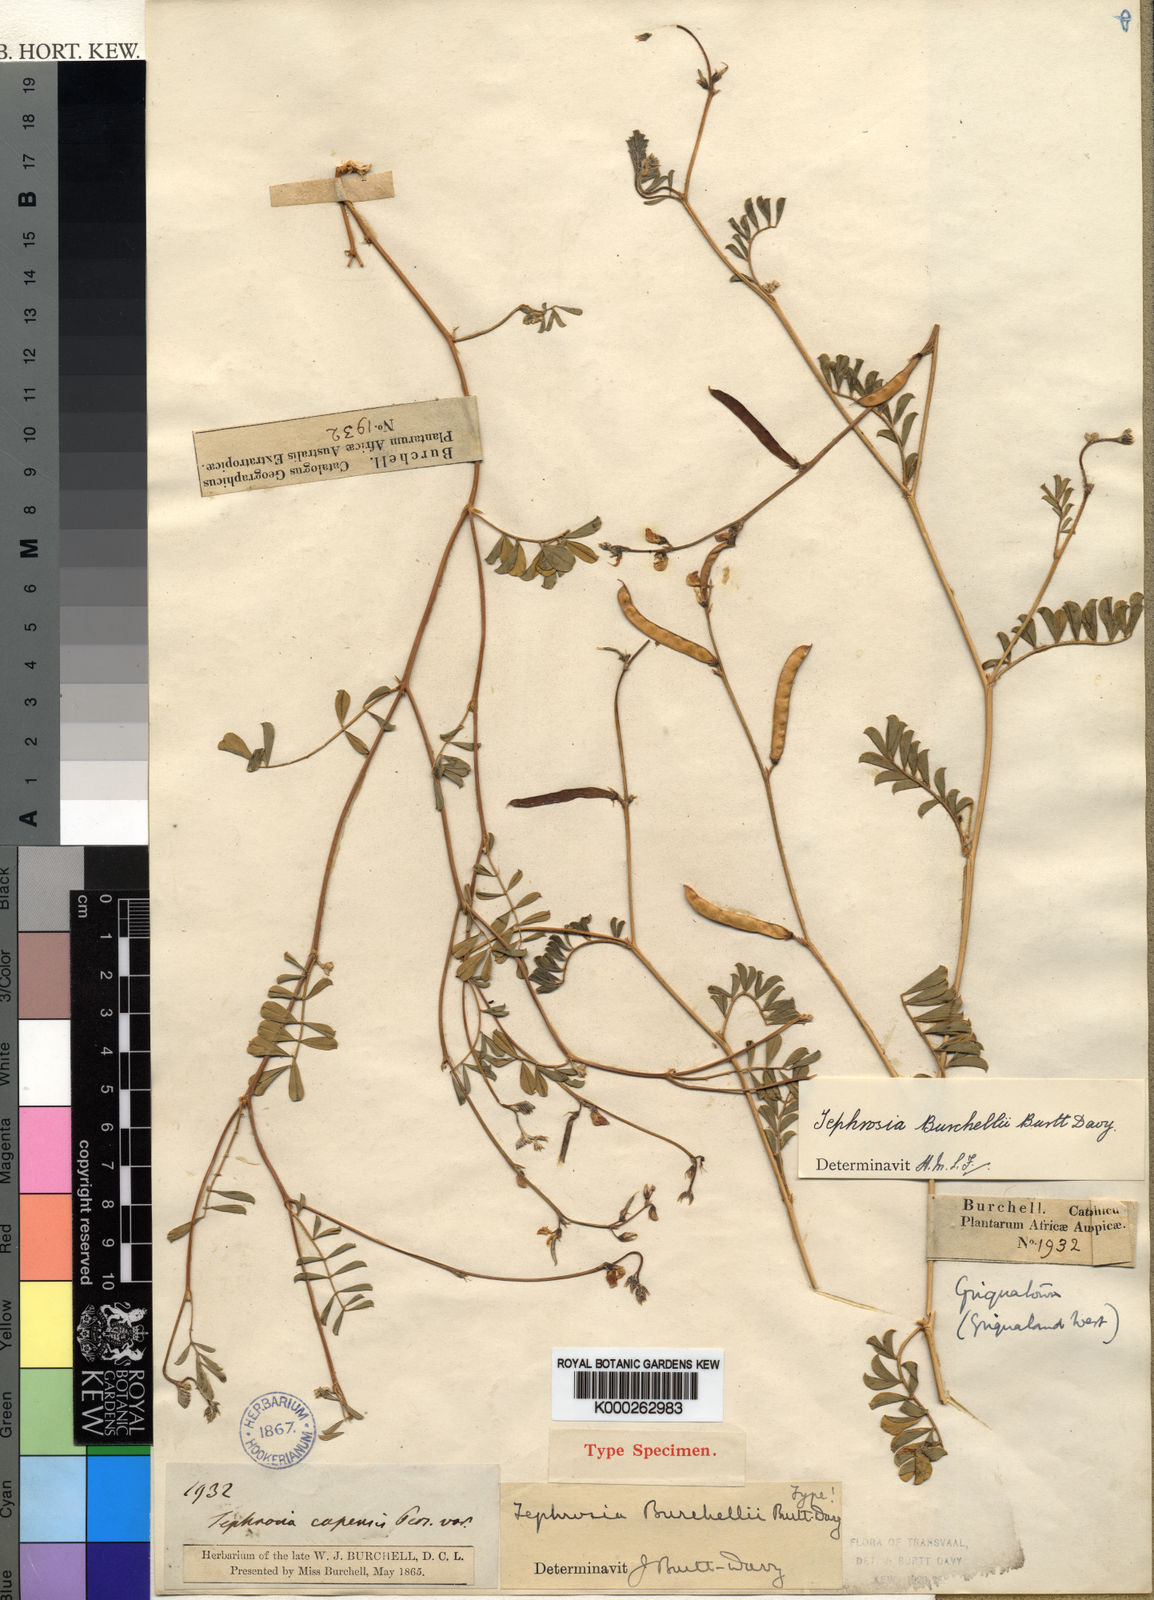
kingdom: Plantae
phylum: Tracheophyta
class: Magnoliopsida
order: Fabales
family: Fabaceae
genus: Tephrosia
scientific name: Tephrosia burchellii
